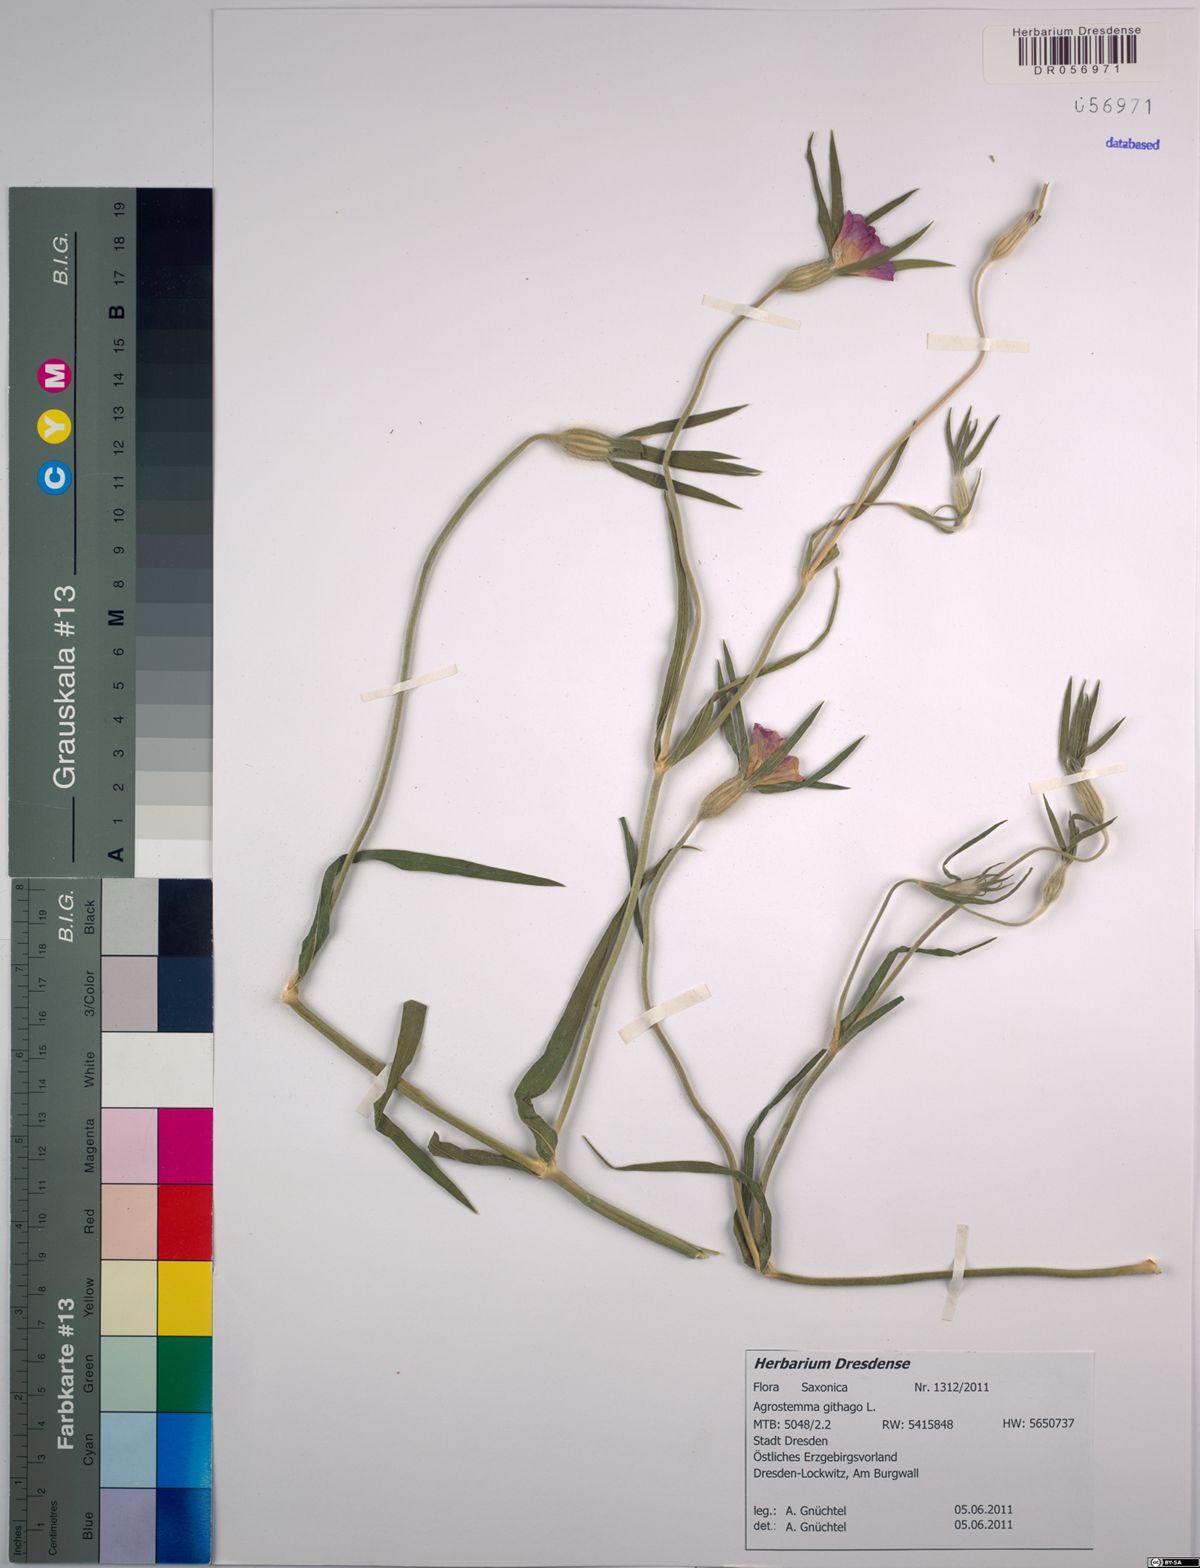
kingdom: Plantae
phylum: Tracheophyta
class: Magnoliopsida
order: Caryophyllales
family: Caryophyllaceae
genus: Agrostemma
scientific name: Agrostemma githago
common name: Common corncockle
